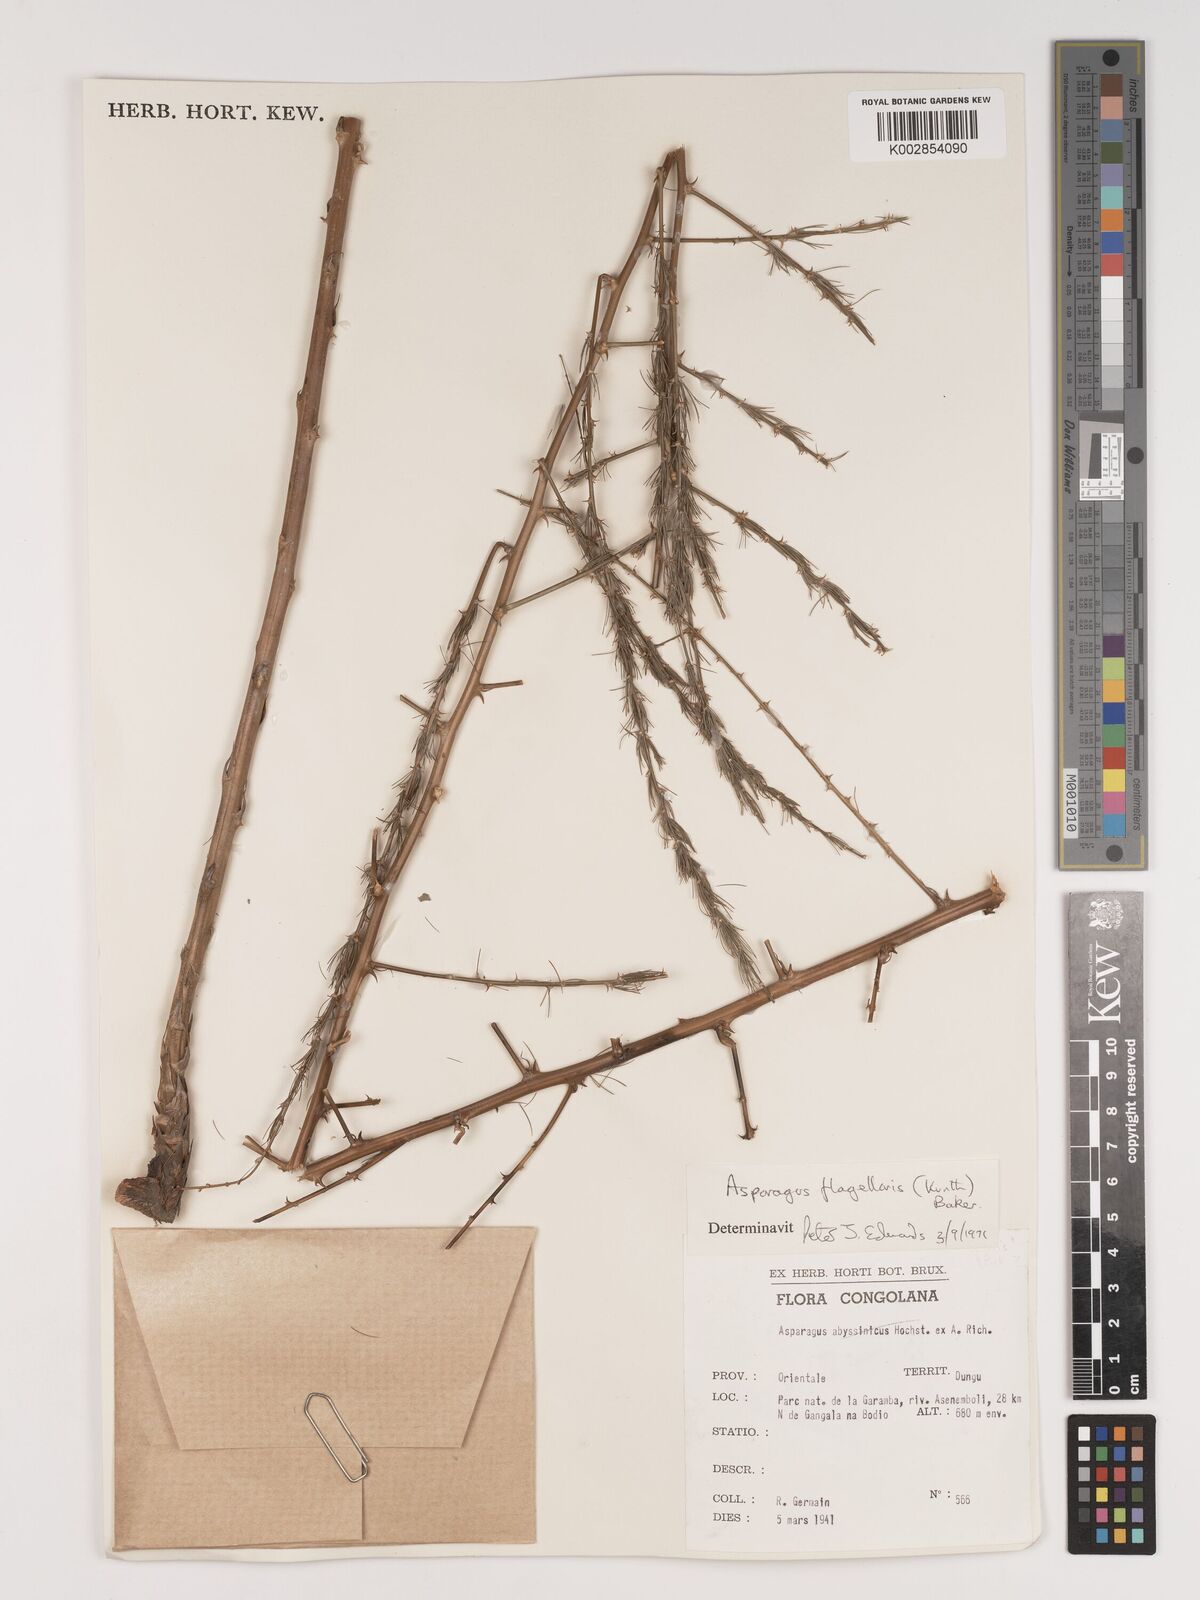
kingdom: Plantae
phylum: Tracheophyta
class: Liliopsida
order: Asparagales
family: Asparagaceae
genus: Asparagus
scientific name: Asparagus flagellaris
